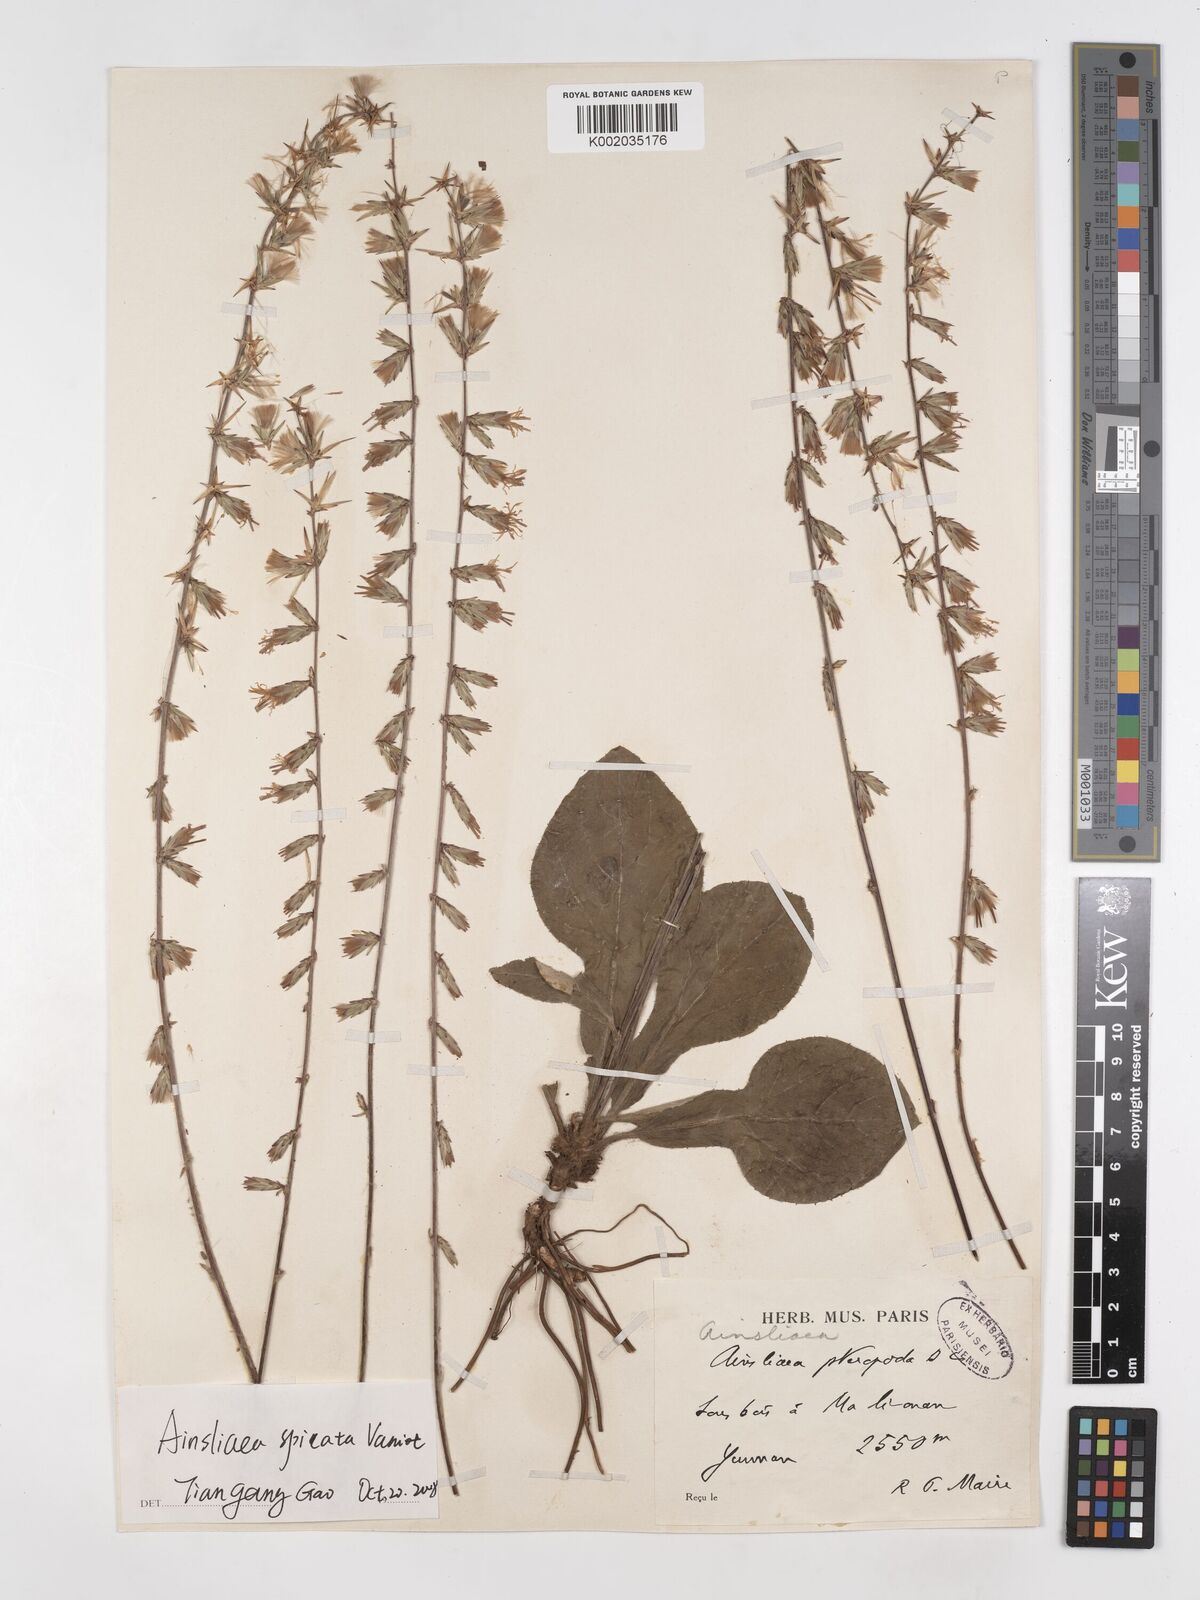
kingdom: Plantae
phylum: Tracheophyta
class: Magnoliopsida
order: Asterales
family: Asteraceae
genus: Ainsliaea
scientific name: Ainsliaea spicata
